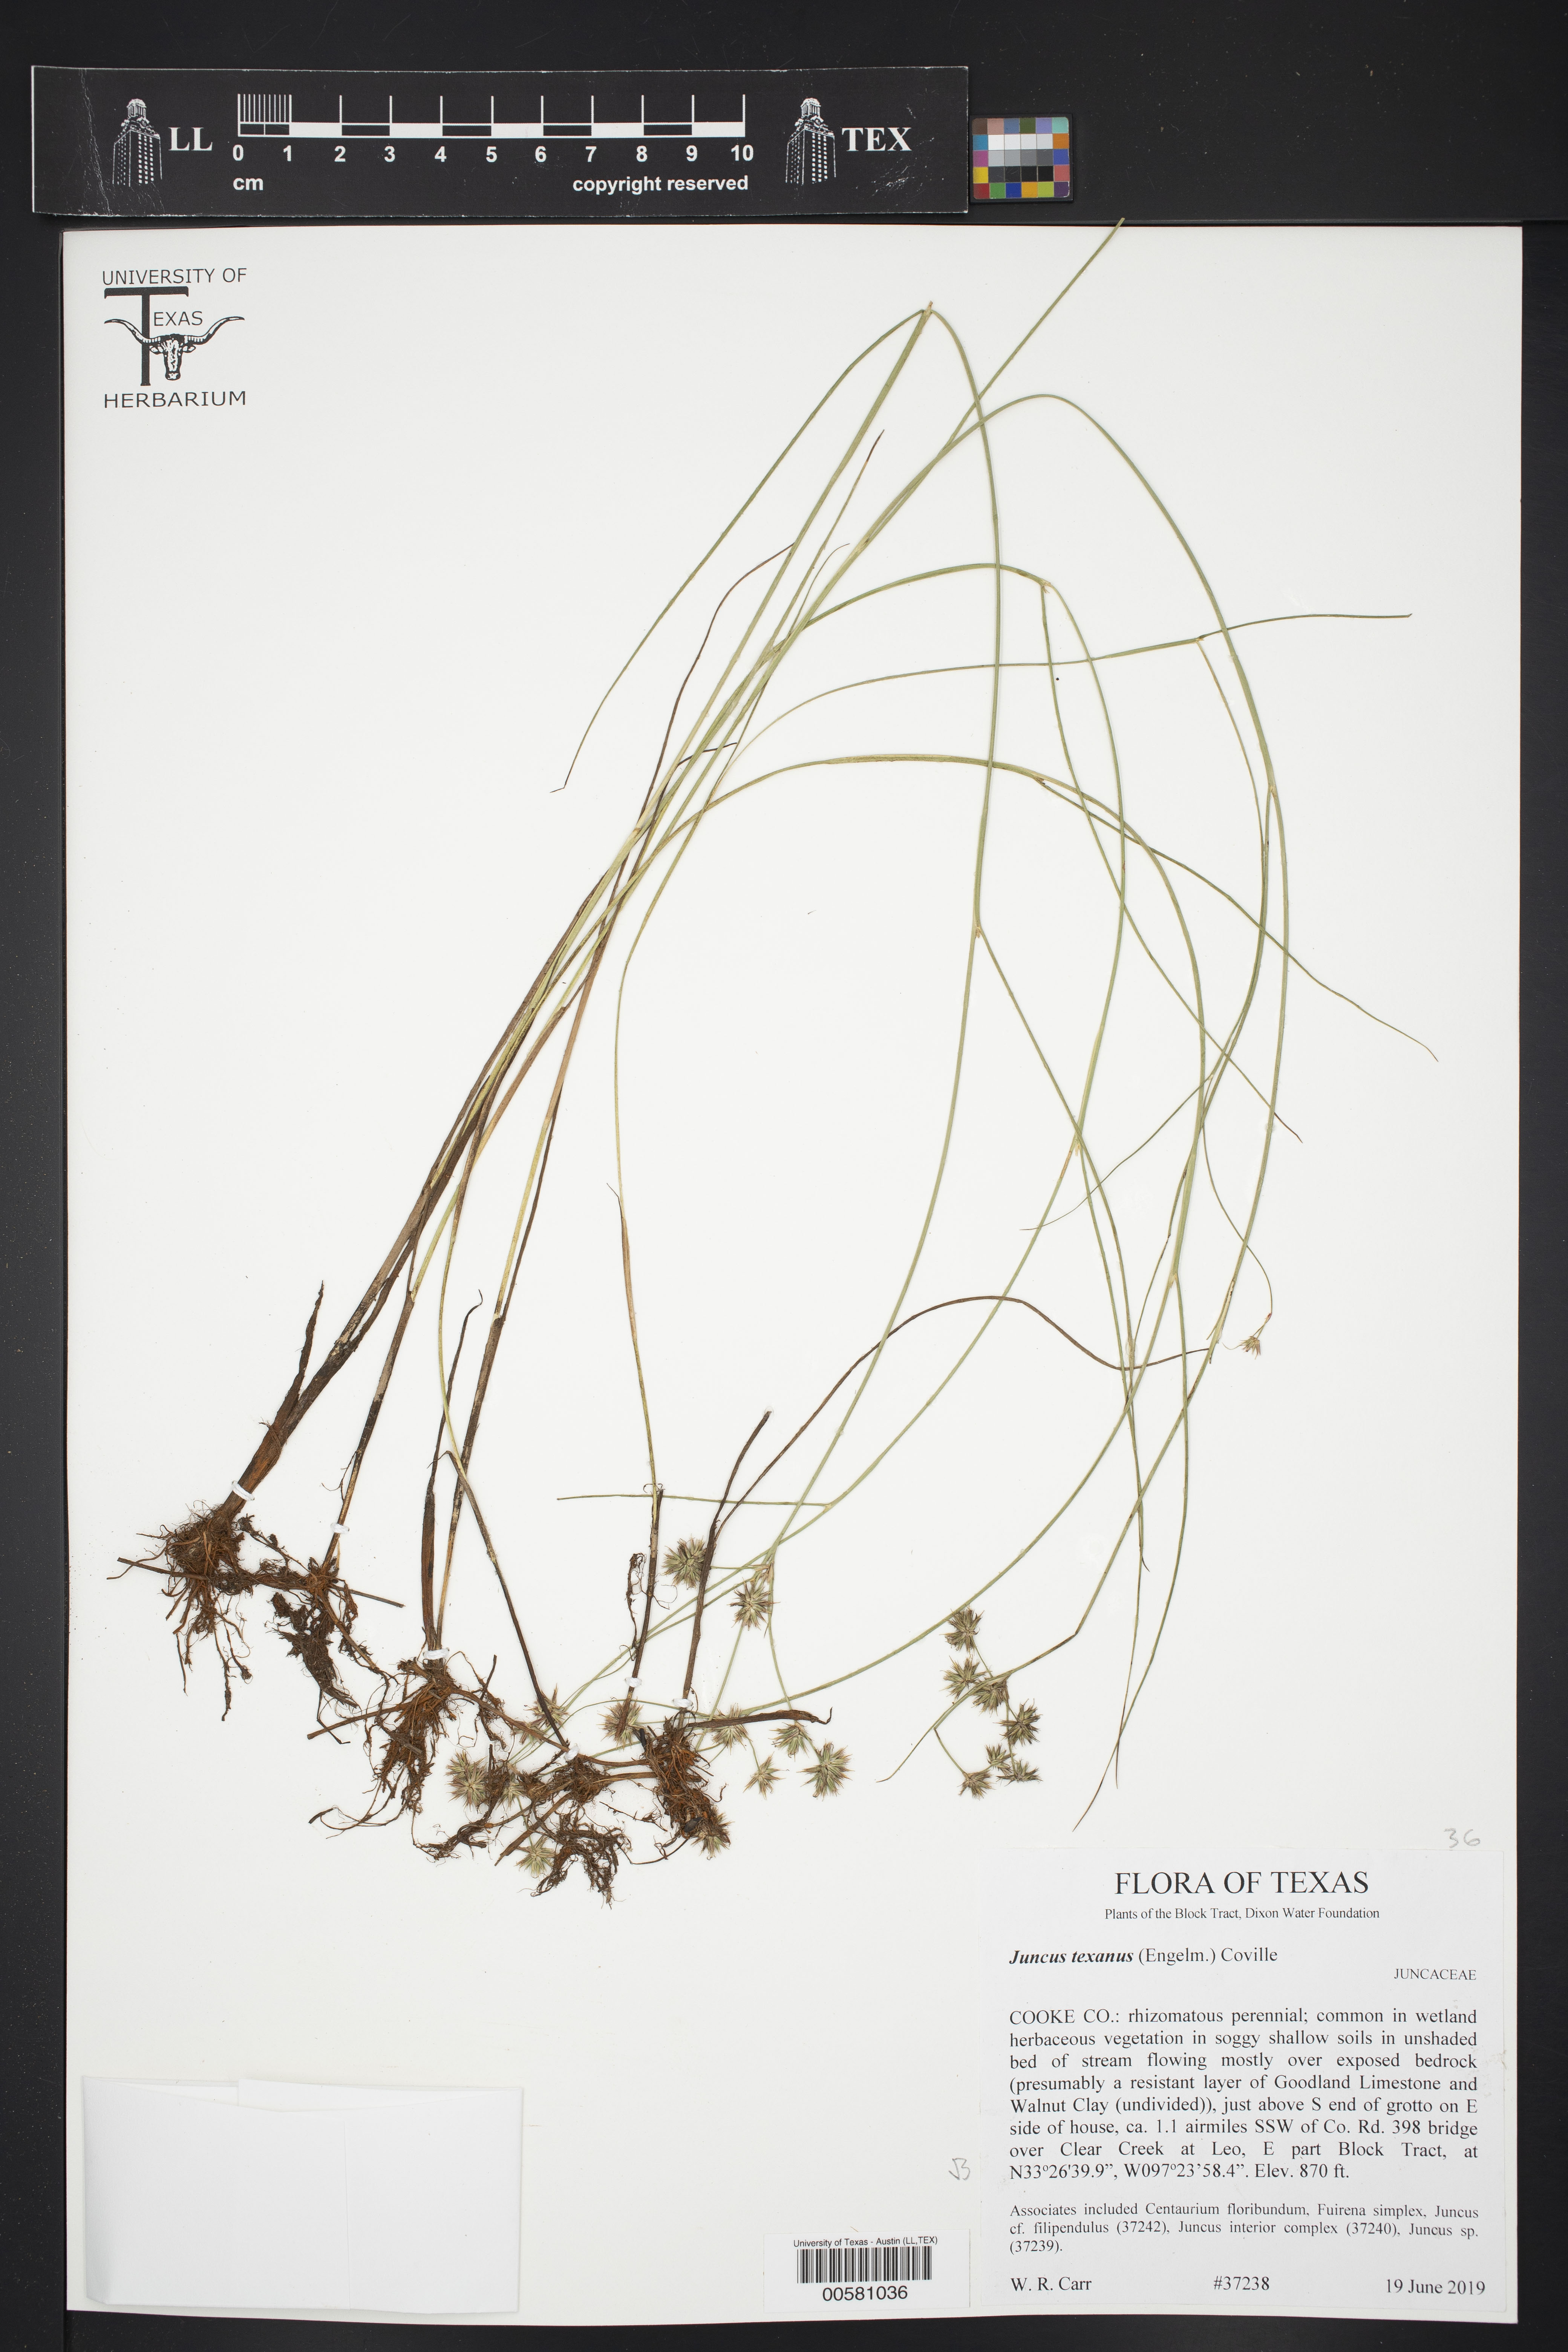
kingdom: Plantae
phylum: Tracheophyta
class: Liliopsida
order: Poales
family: Juncaceae
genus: Juncus
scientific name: Juncus texanus
